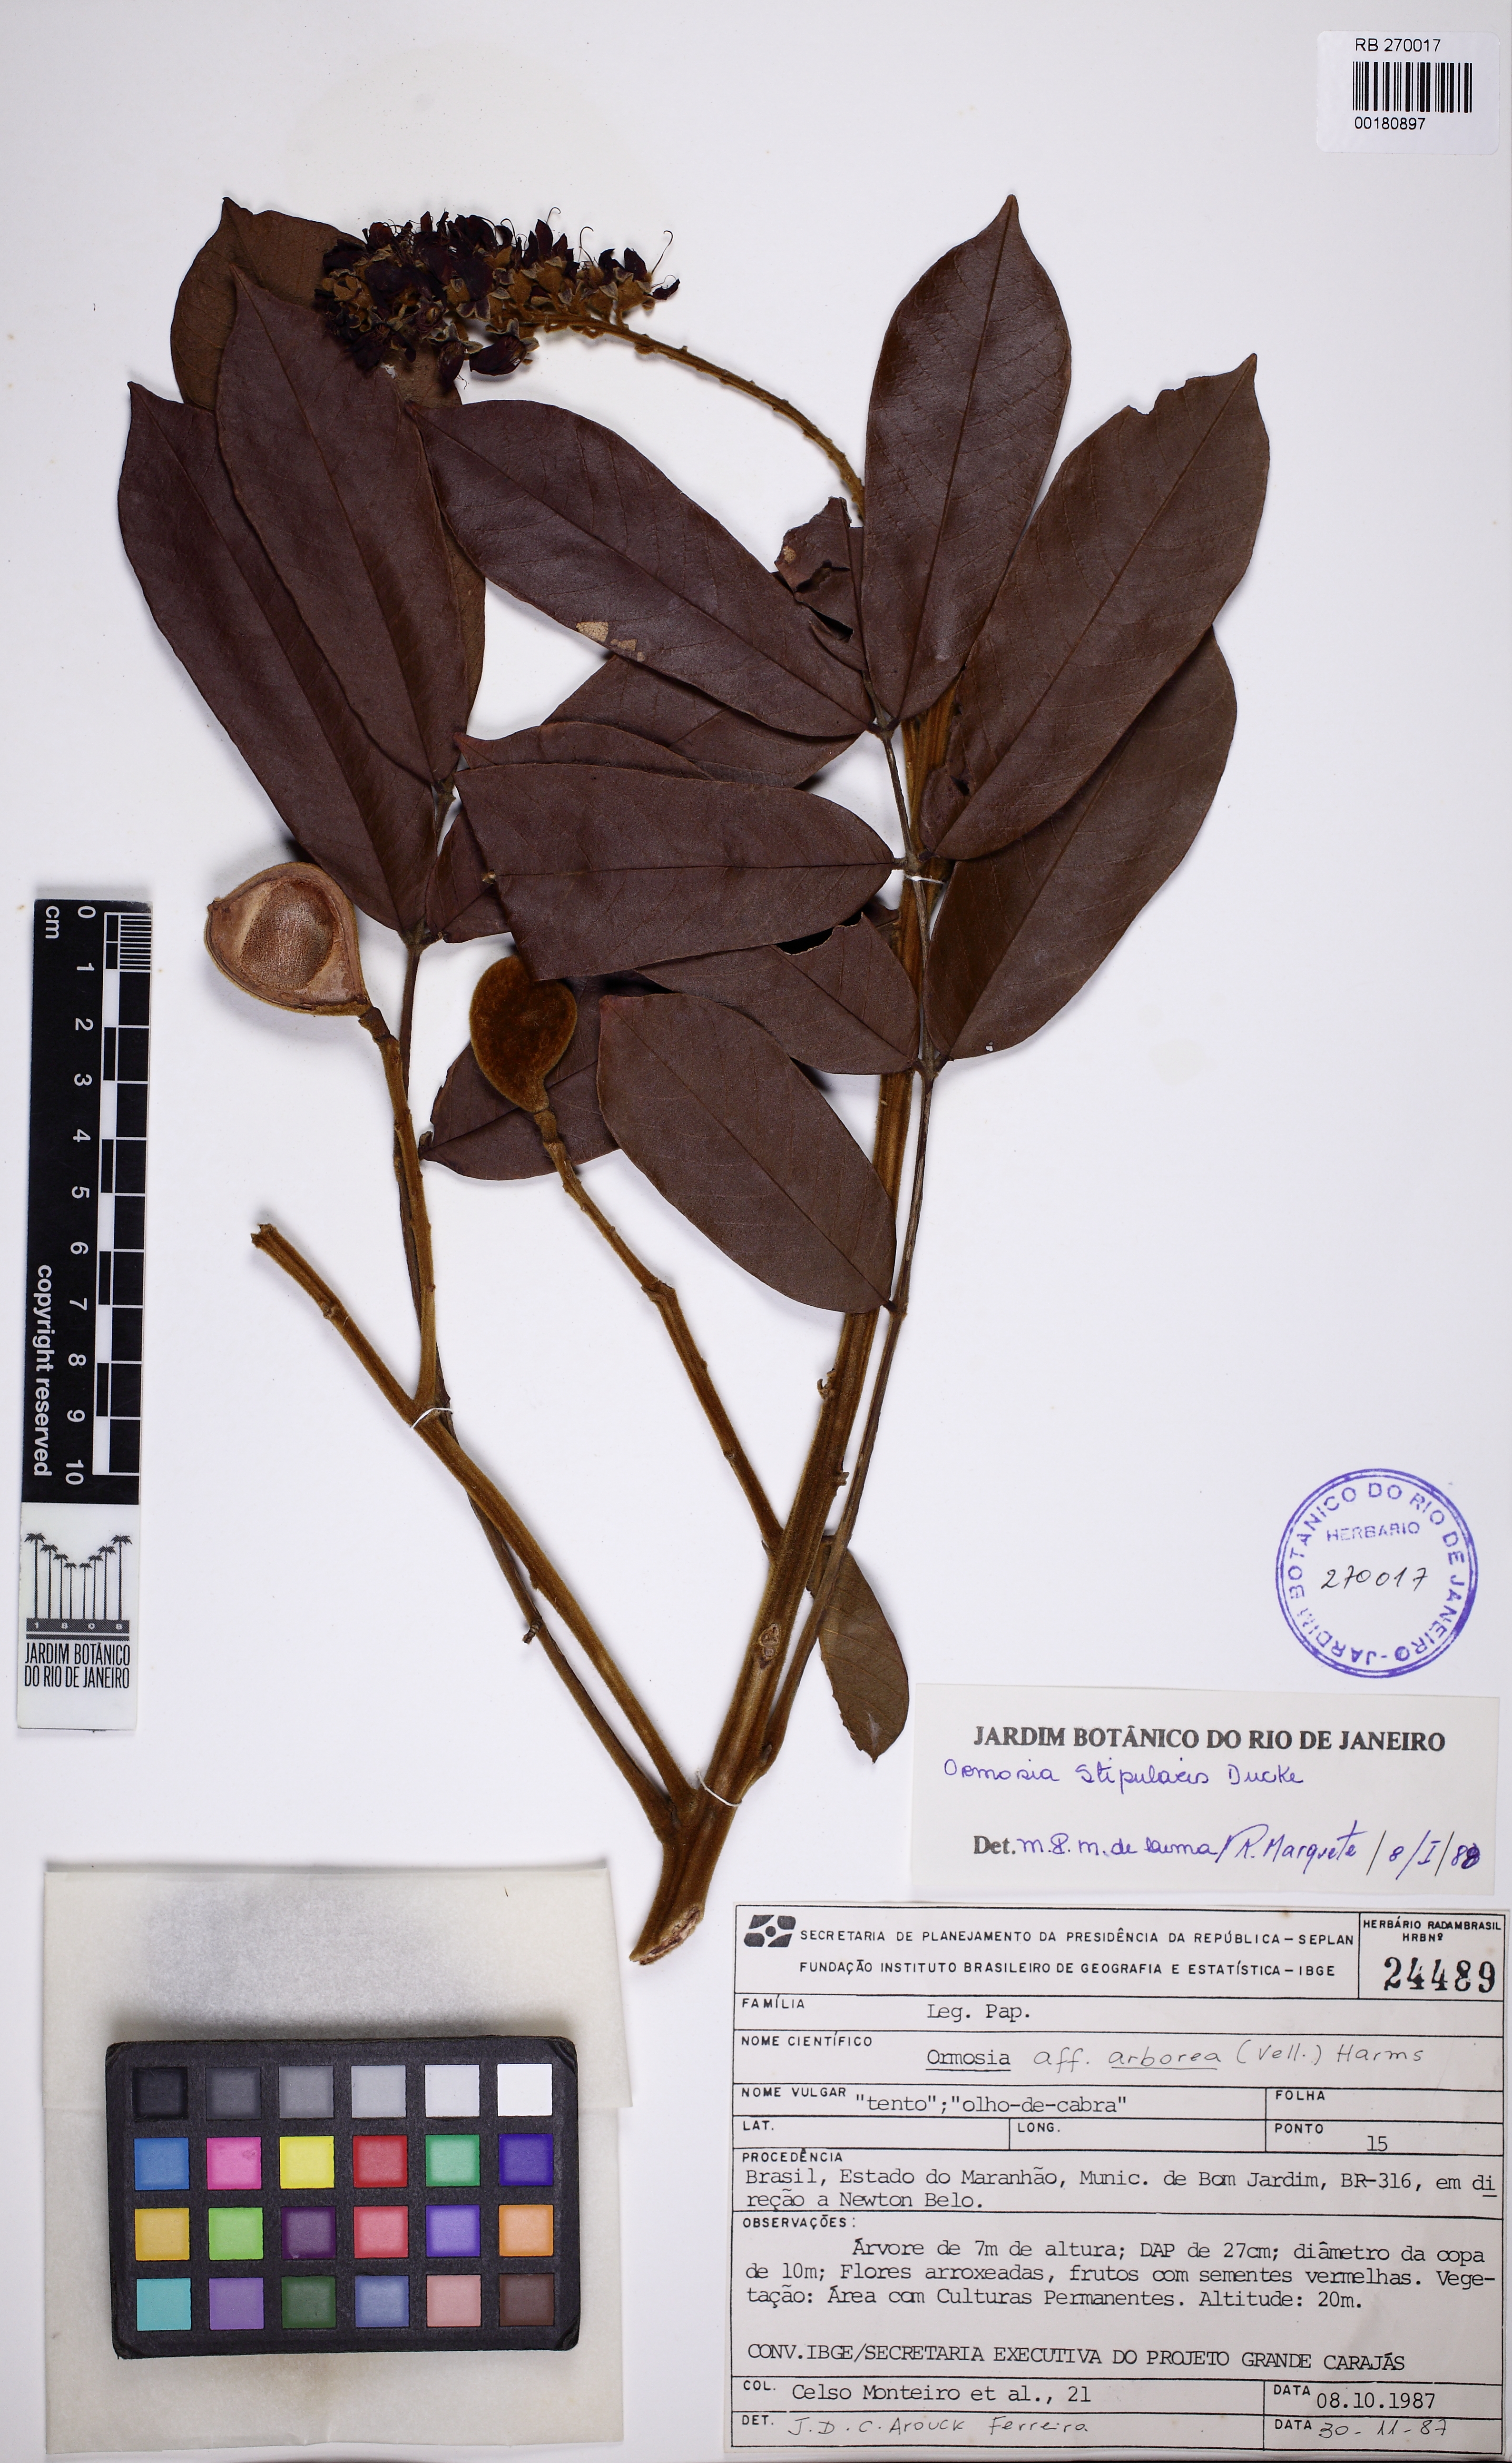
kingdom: Plantae
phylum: Tracheophyta
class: Magnoliopsida
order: Fabales
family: Fabaceae
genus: Ormosia
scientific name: Ormosia stipularis
